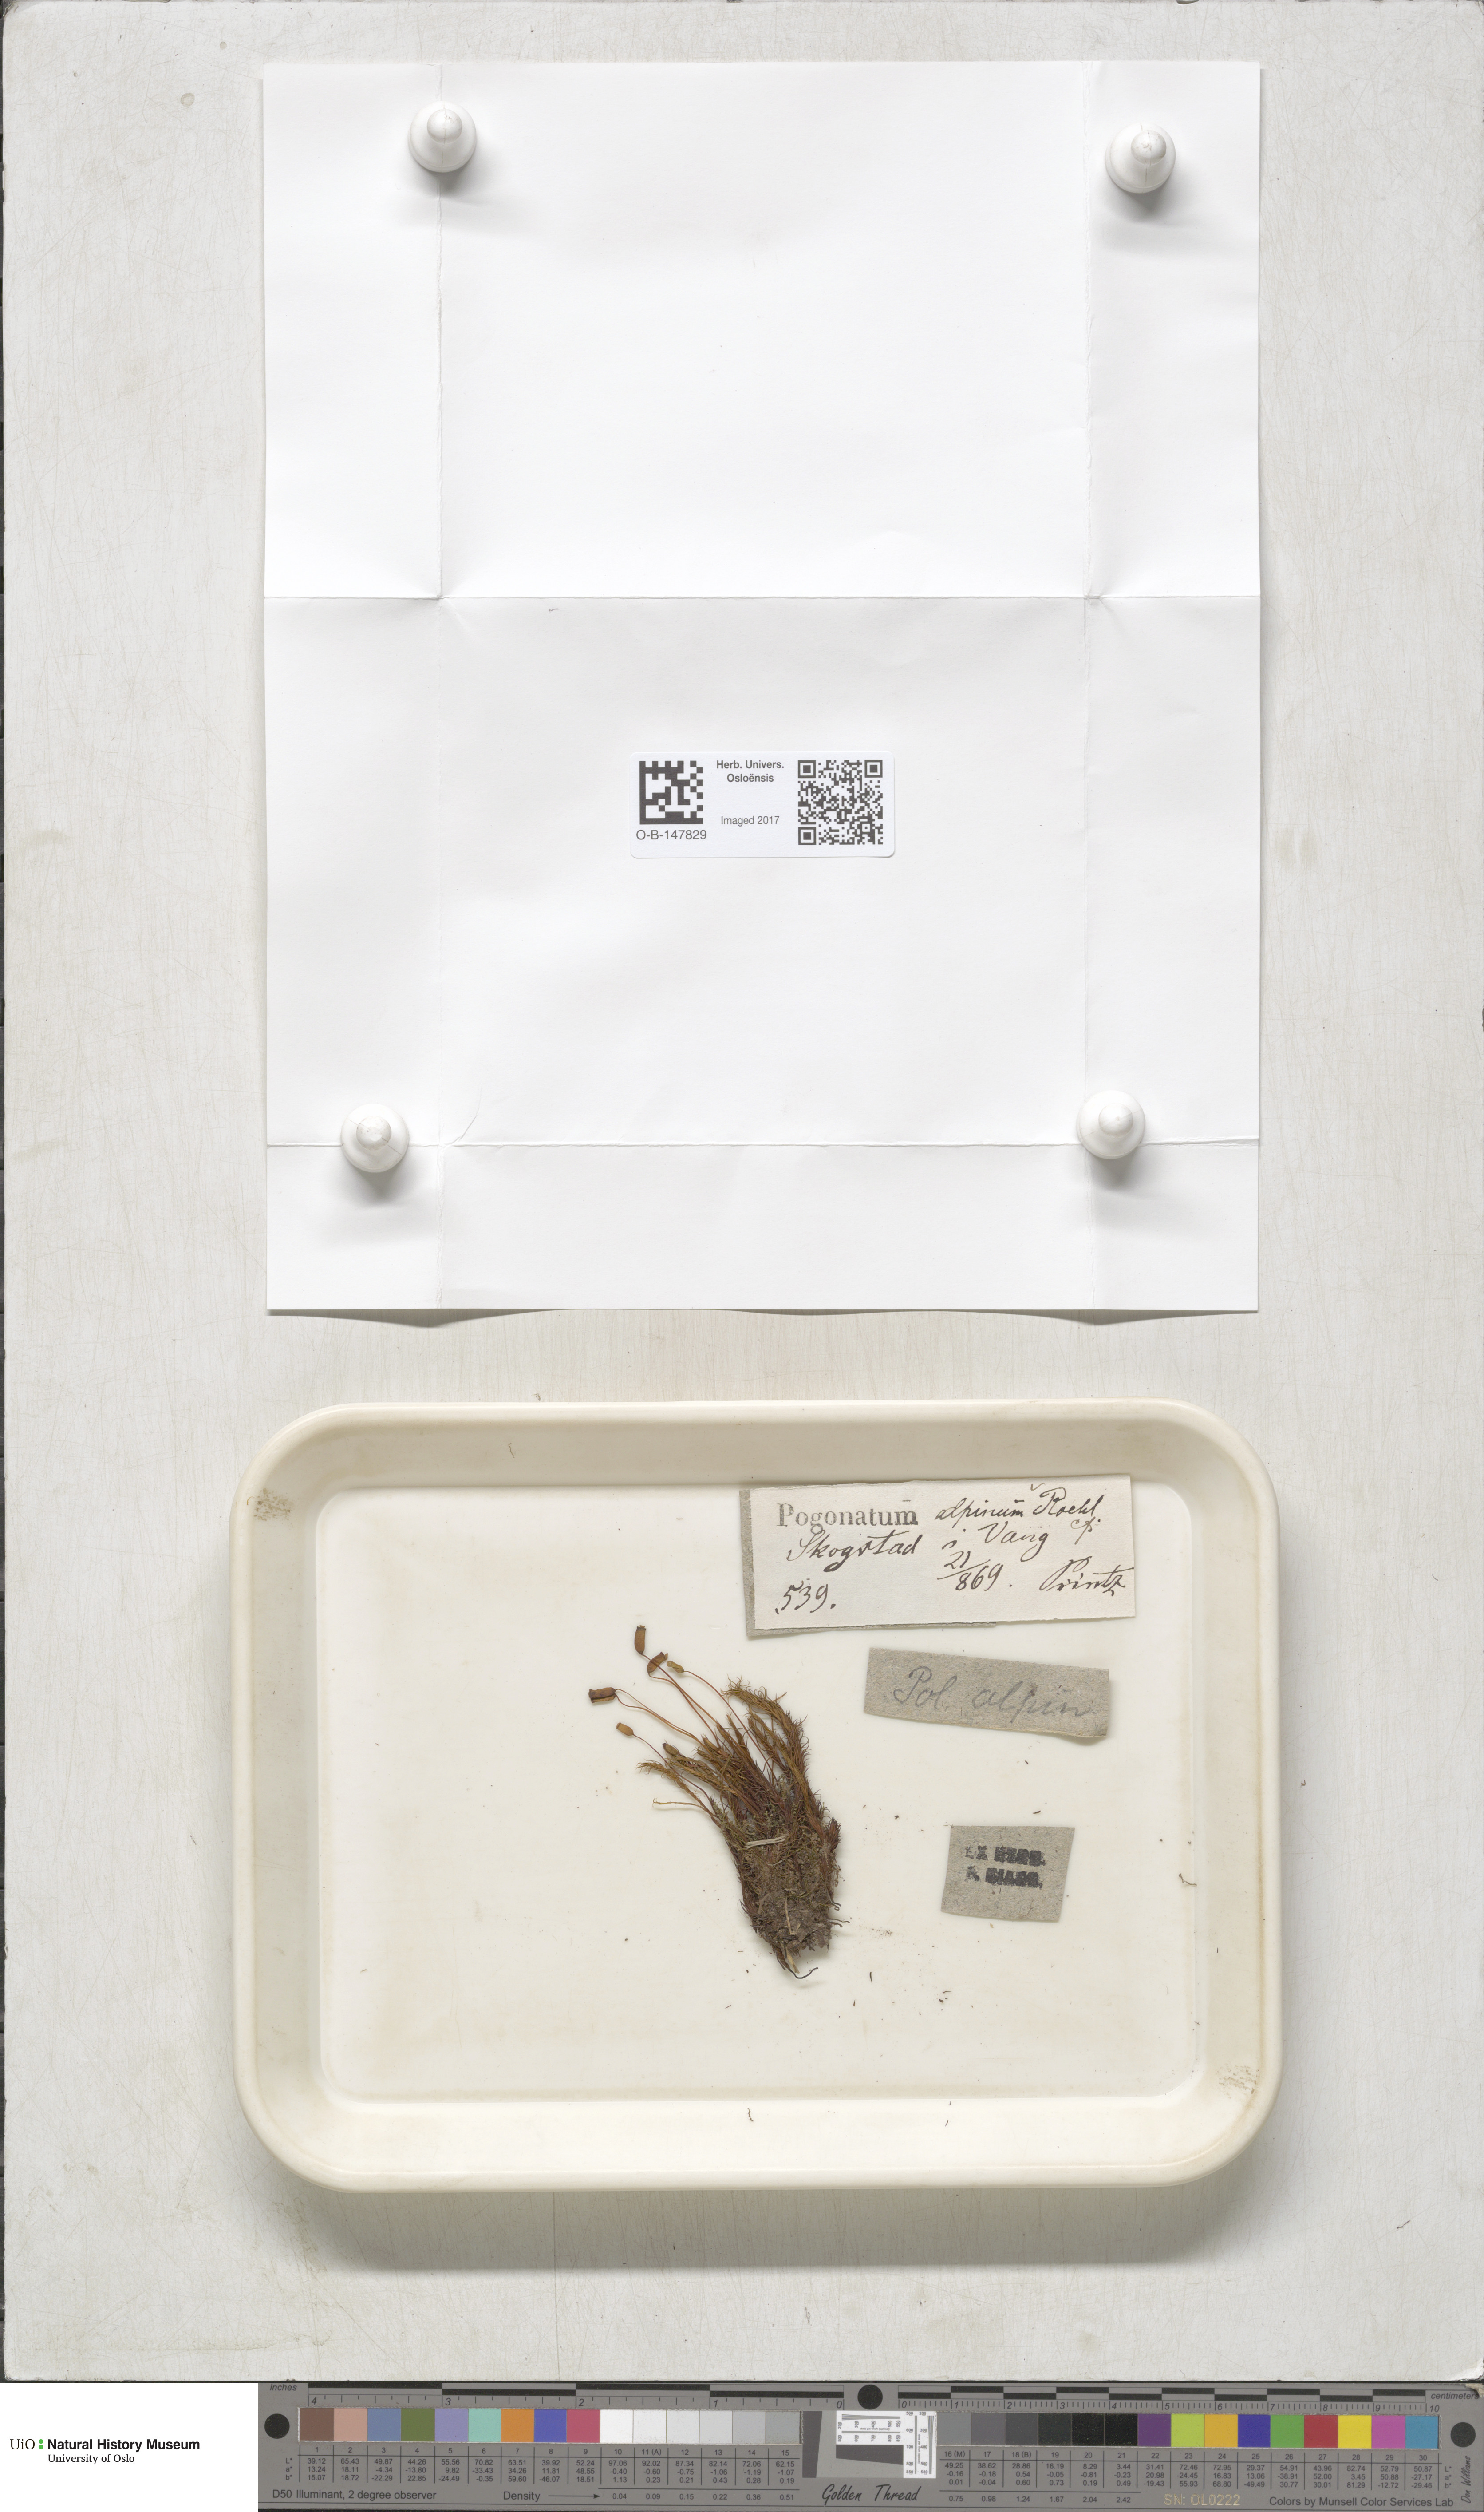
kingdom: Plantae
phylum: Bryophyta
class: Polytrichopsida
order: Polytrichales
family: Polytrichaceae
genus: Polytrichastrum
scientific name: Polytrichastrum alpinum
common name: Alpine haircap
